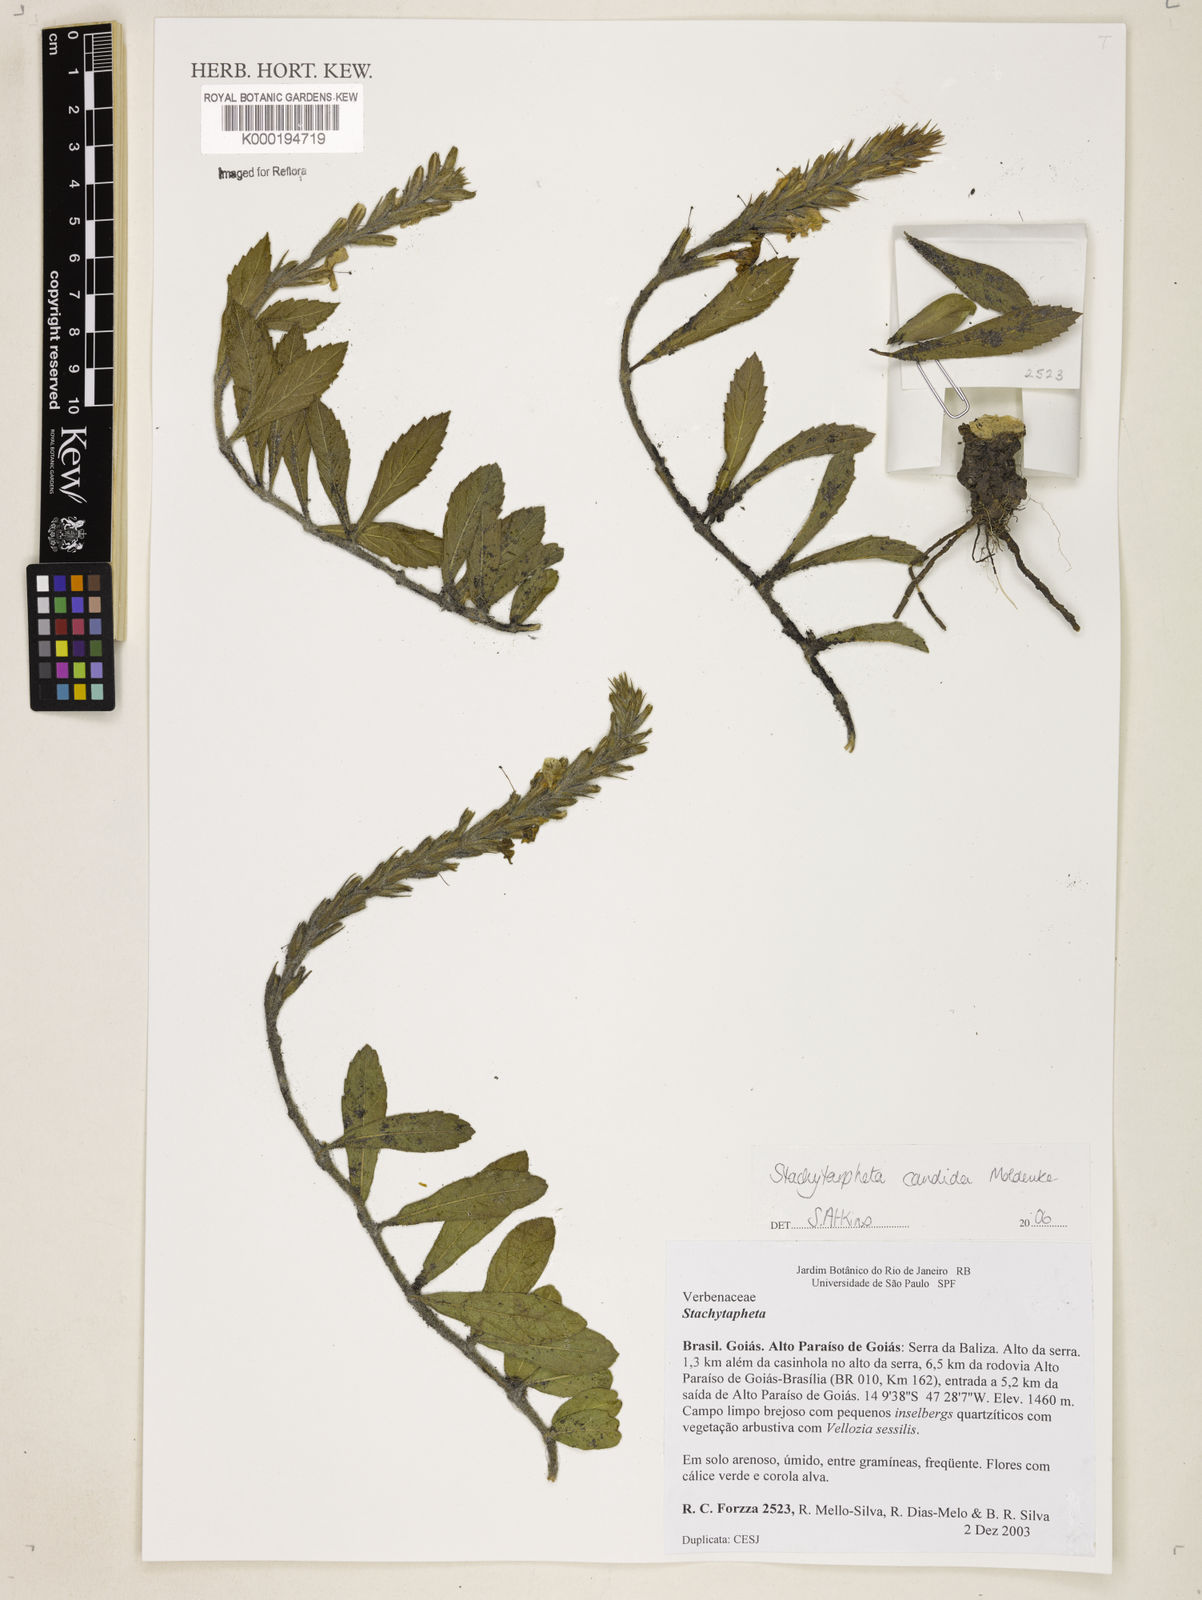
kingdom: Plantae
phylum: Tracheophyta
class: Magnoliopsida
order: Lamiales
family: Verbenaceae
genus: Stachytarpheta
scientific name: Stachytarpheta candida
